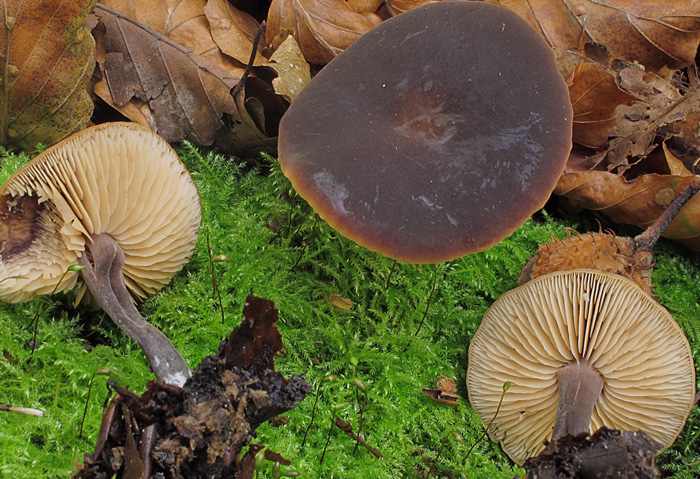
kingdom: Fungi
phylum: Basidiomycota
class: Agaricomycetes
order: Agaricales
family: Macrocystidiaceae
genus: Macrocystidia
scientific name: Macrocystidia cucumis
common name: agurkehat
